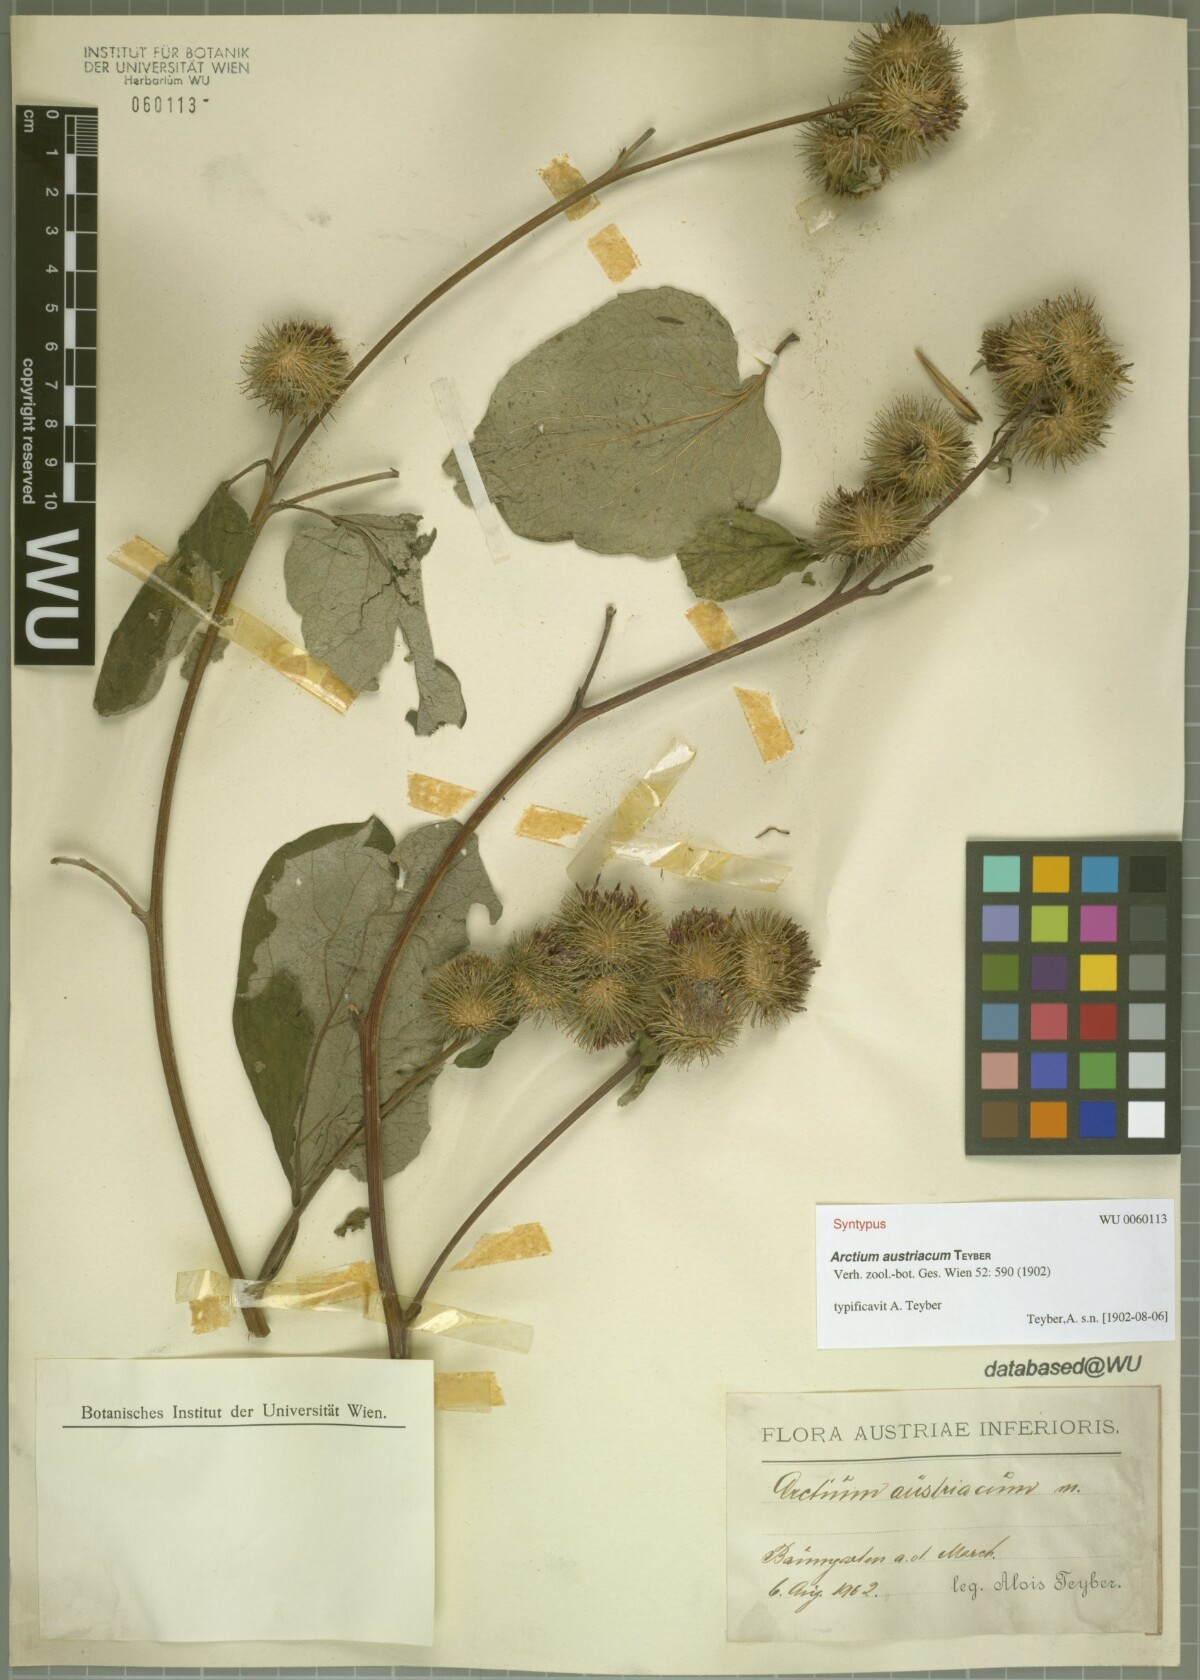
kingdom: Plantae
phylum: Tracheophyta
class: Magnoliopsida
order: Asterales
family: Asteraceae
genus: Arctium
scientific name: Arctium nemorosum
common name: Wood burdock
